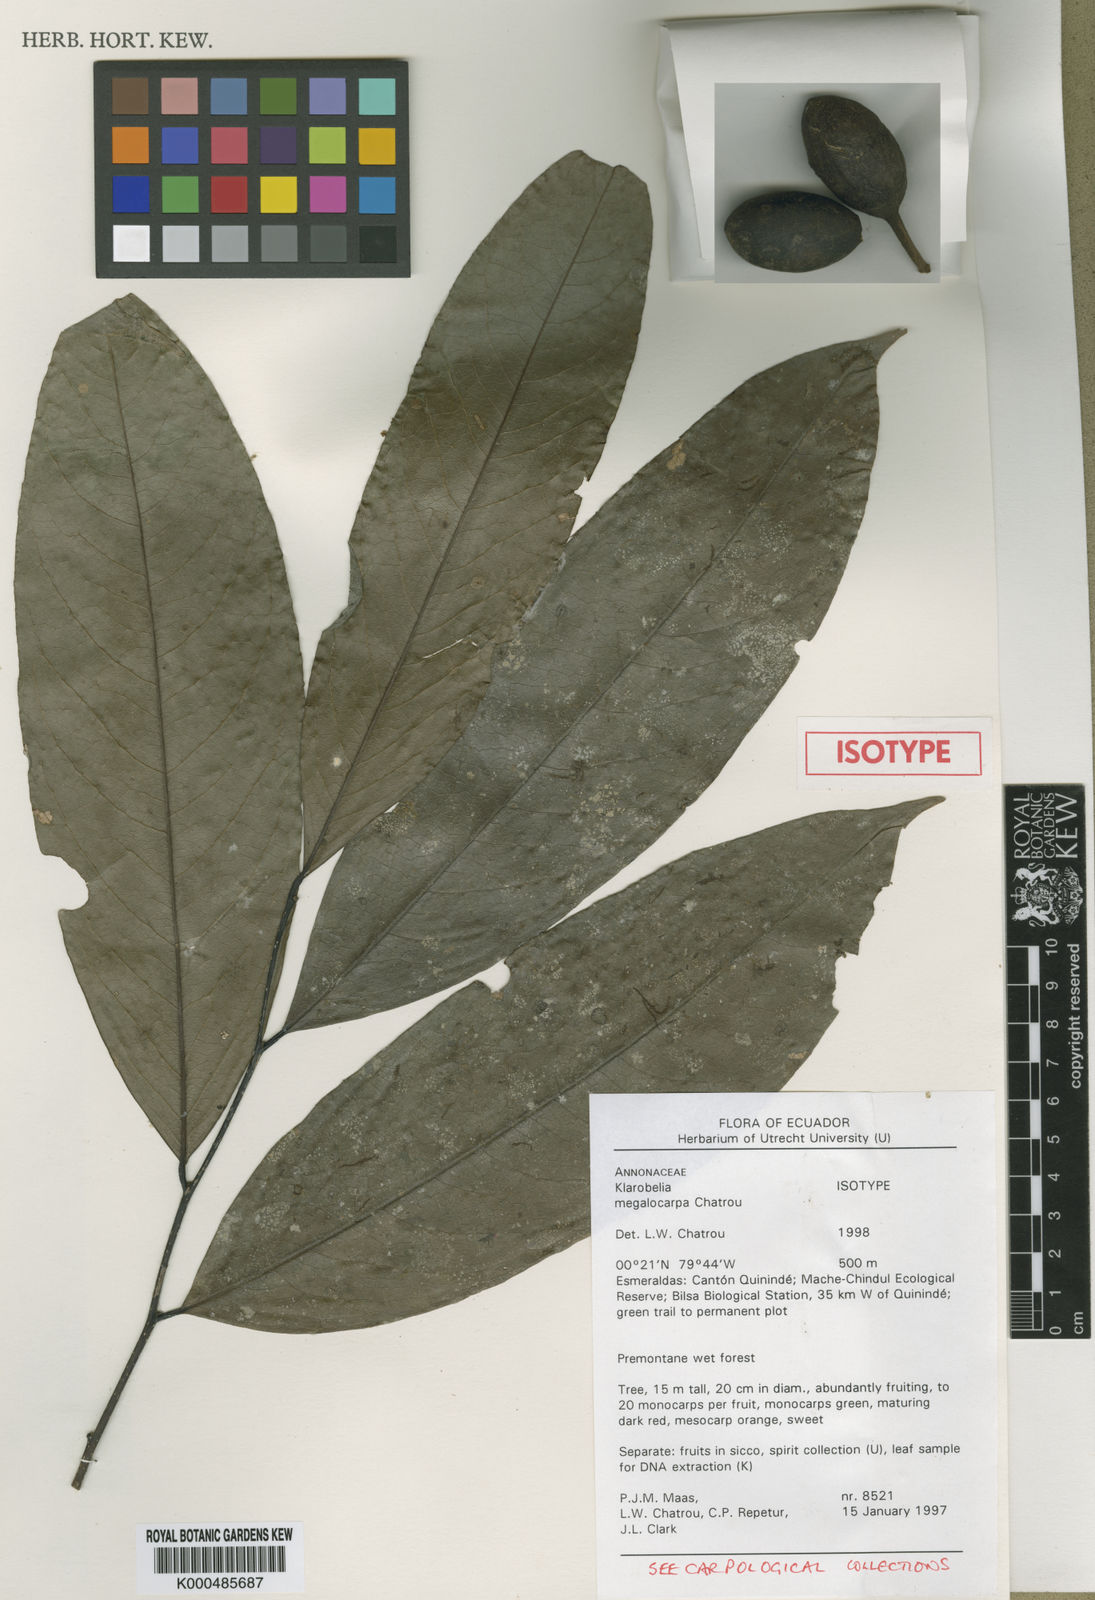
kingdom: Plantae
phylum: Tracheophyta
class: Magnoliopsida
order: Magnoliales
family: Annonaceae
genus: Klarobelia
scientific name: Klarobelia megalocarpa
